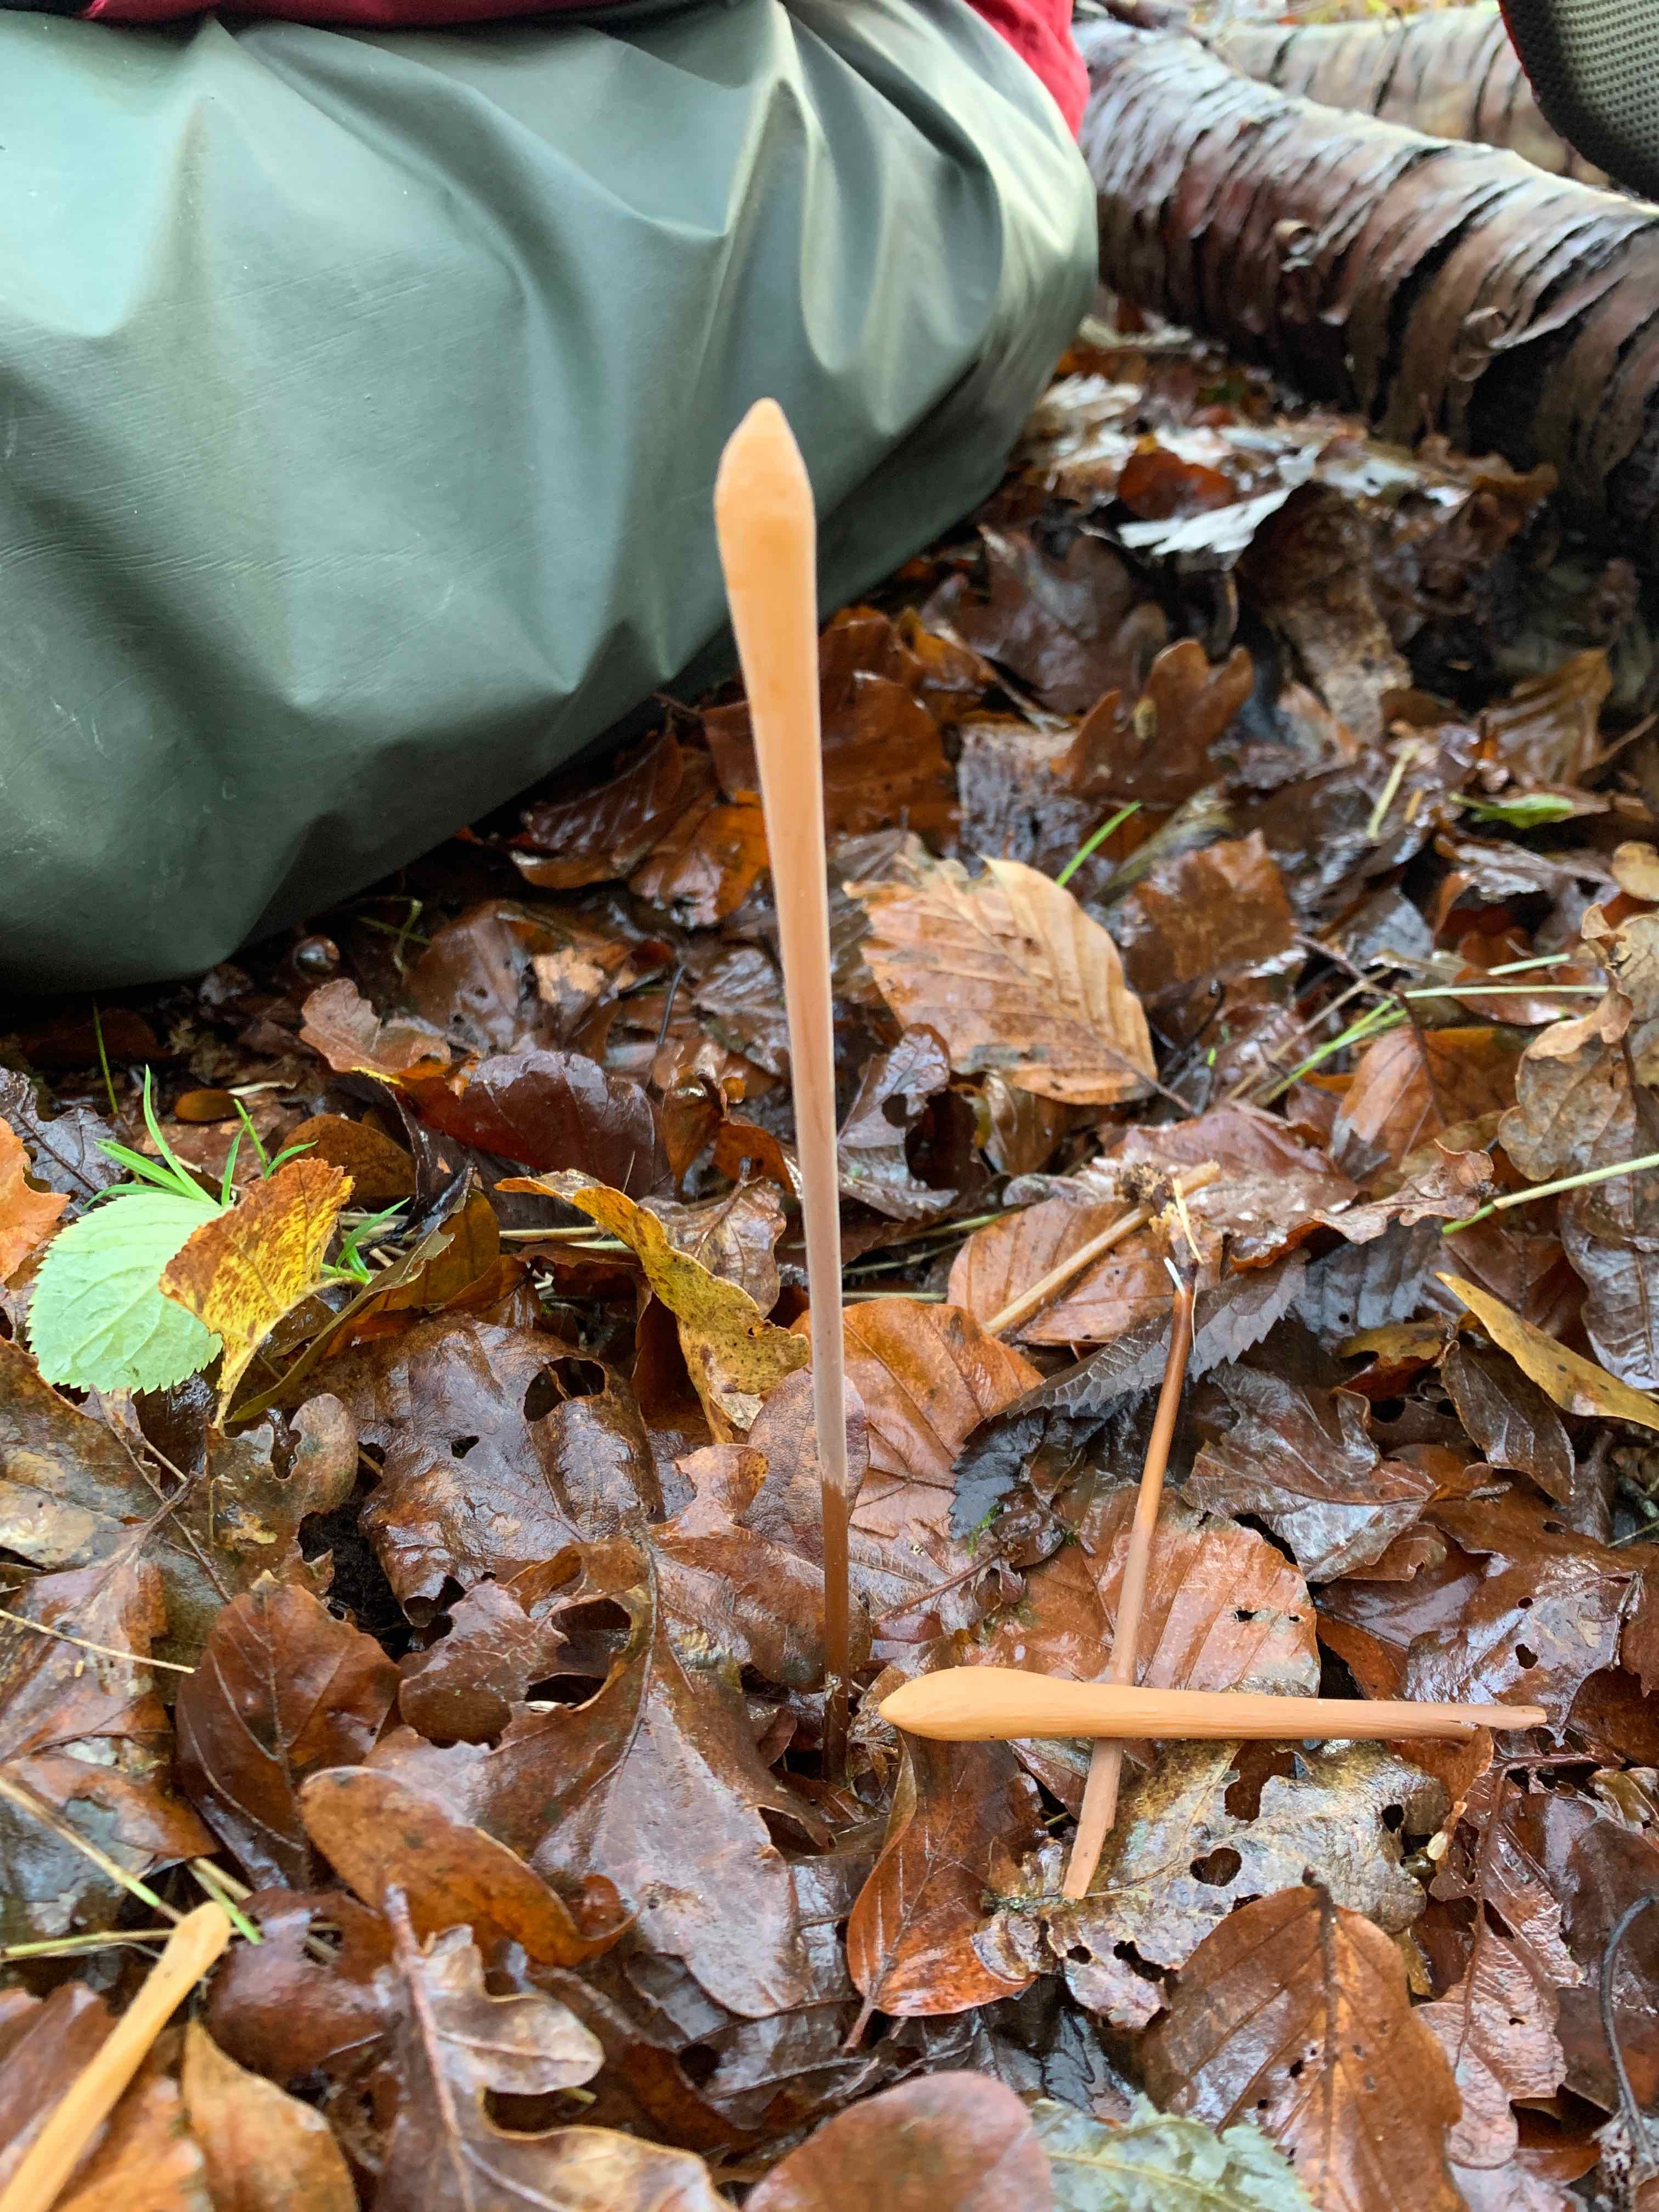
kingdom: Fungi
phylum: Basidiomycota
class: Agaricomycetes
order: Agaricales
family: Typhulaceae
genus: Typhula
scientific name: Typhula fistulosa
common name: pibet rørkølle
